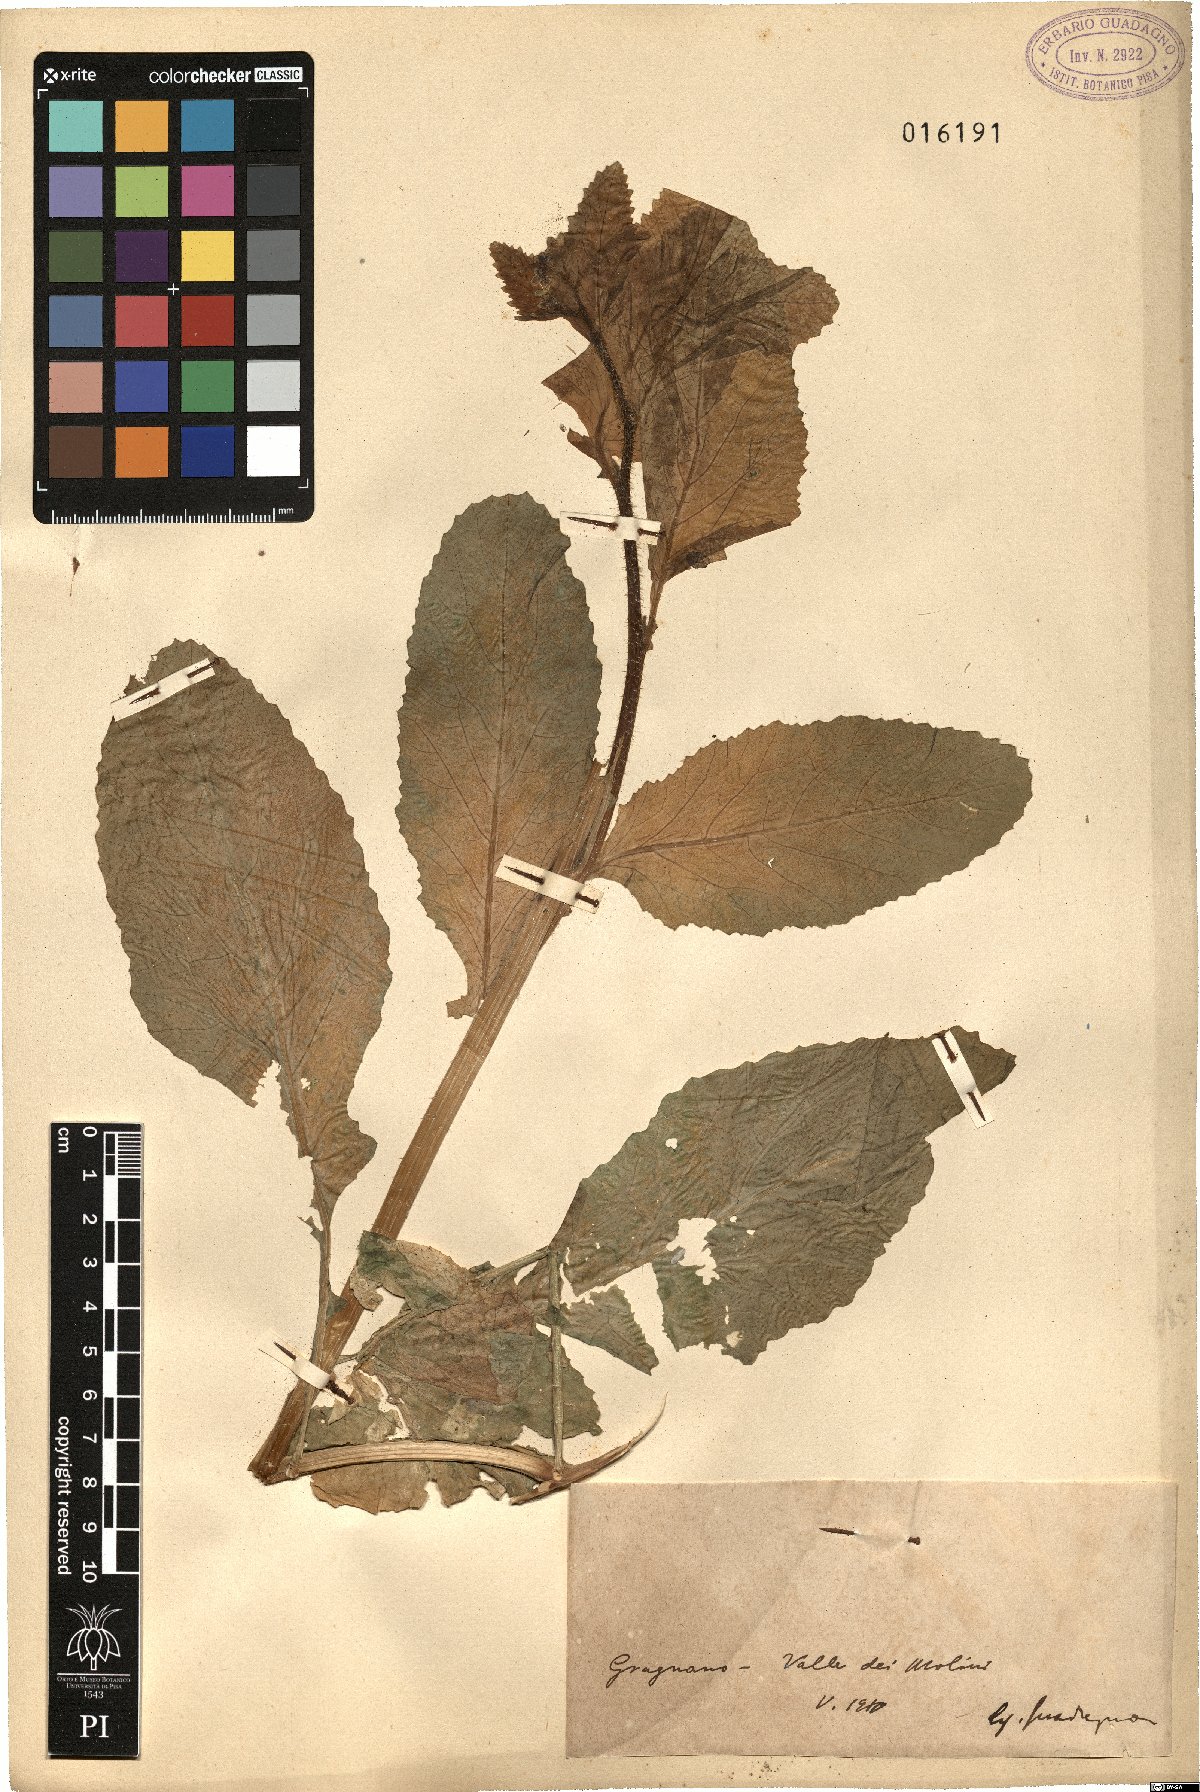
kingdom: Plantae
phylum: Tracheophyta
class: Magnoliopsida
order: Brassicales
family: Brassicaceae
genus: Brassica
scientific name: Brassica
